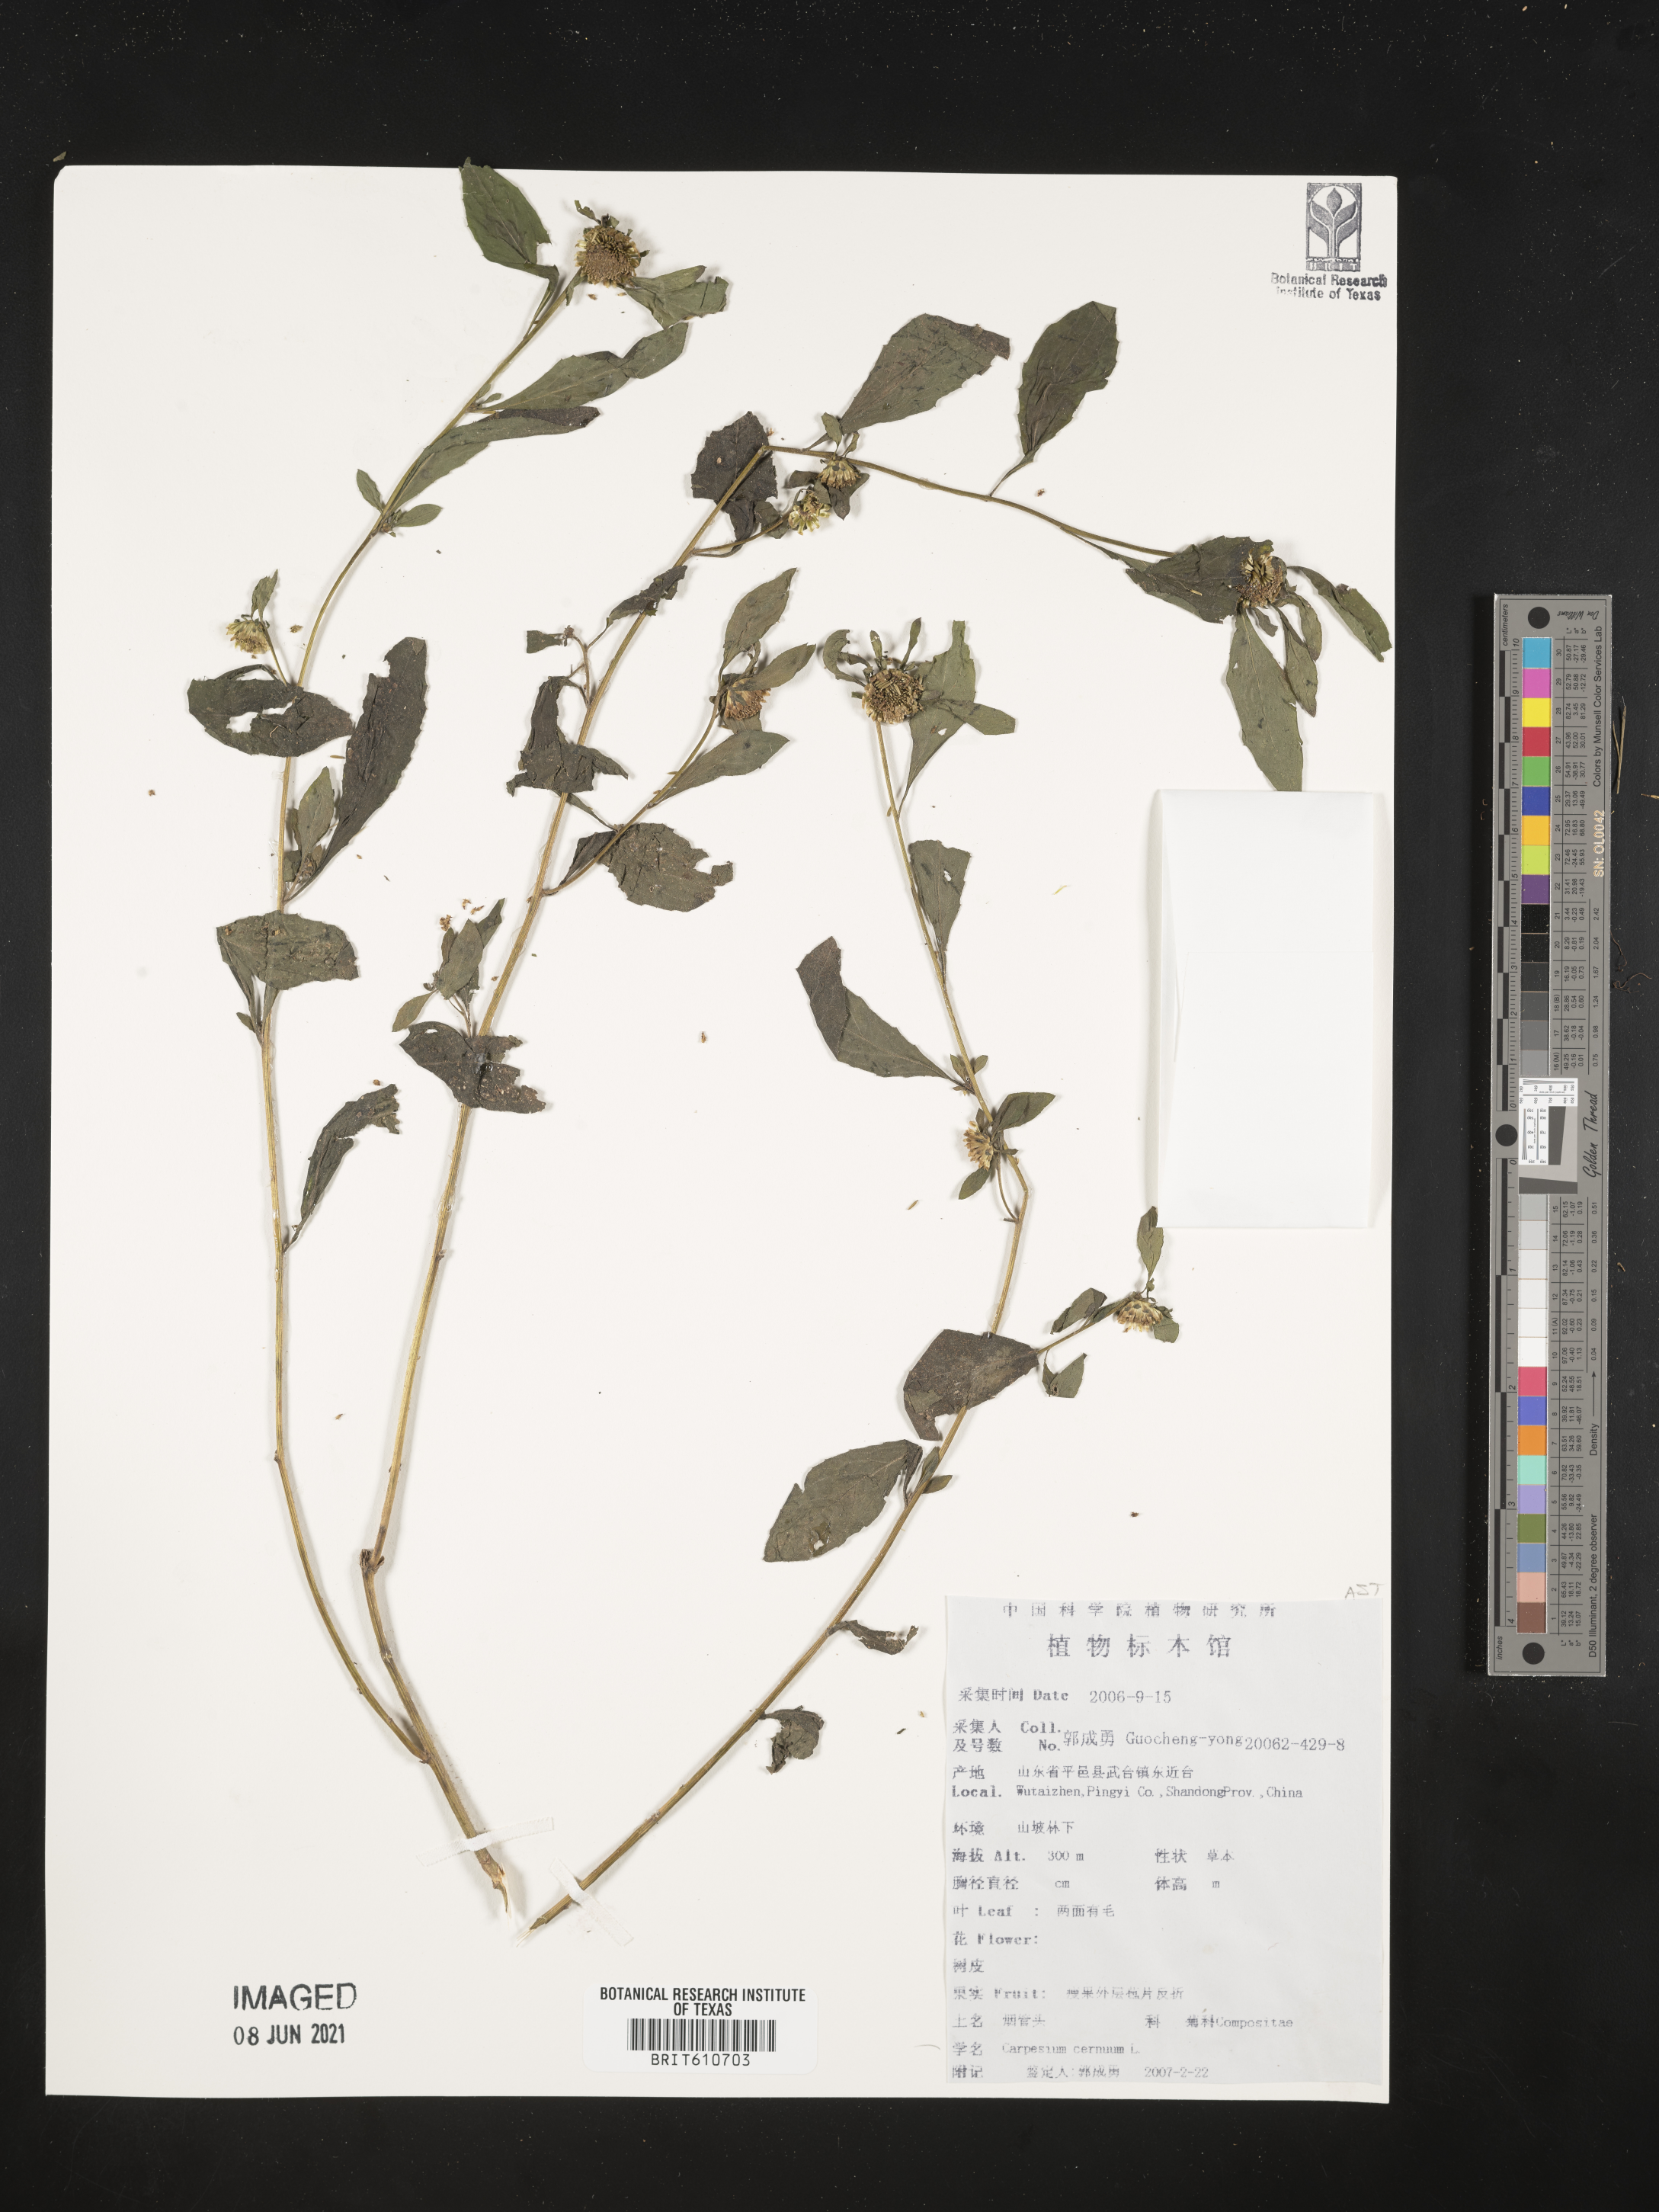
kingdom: Plantae
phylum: Tracheophyta
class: Magnoliopsida
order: Asterales
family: Asteraceae
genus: Carpesium
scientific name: Carpesium cernuum
